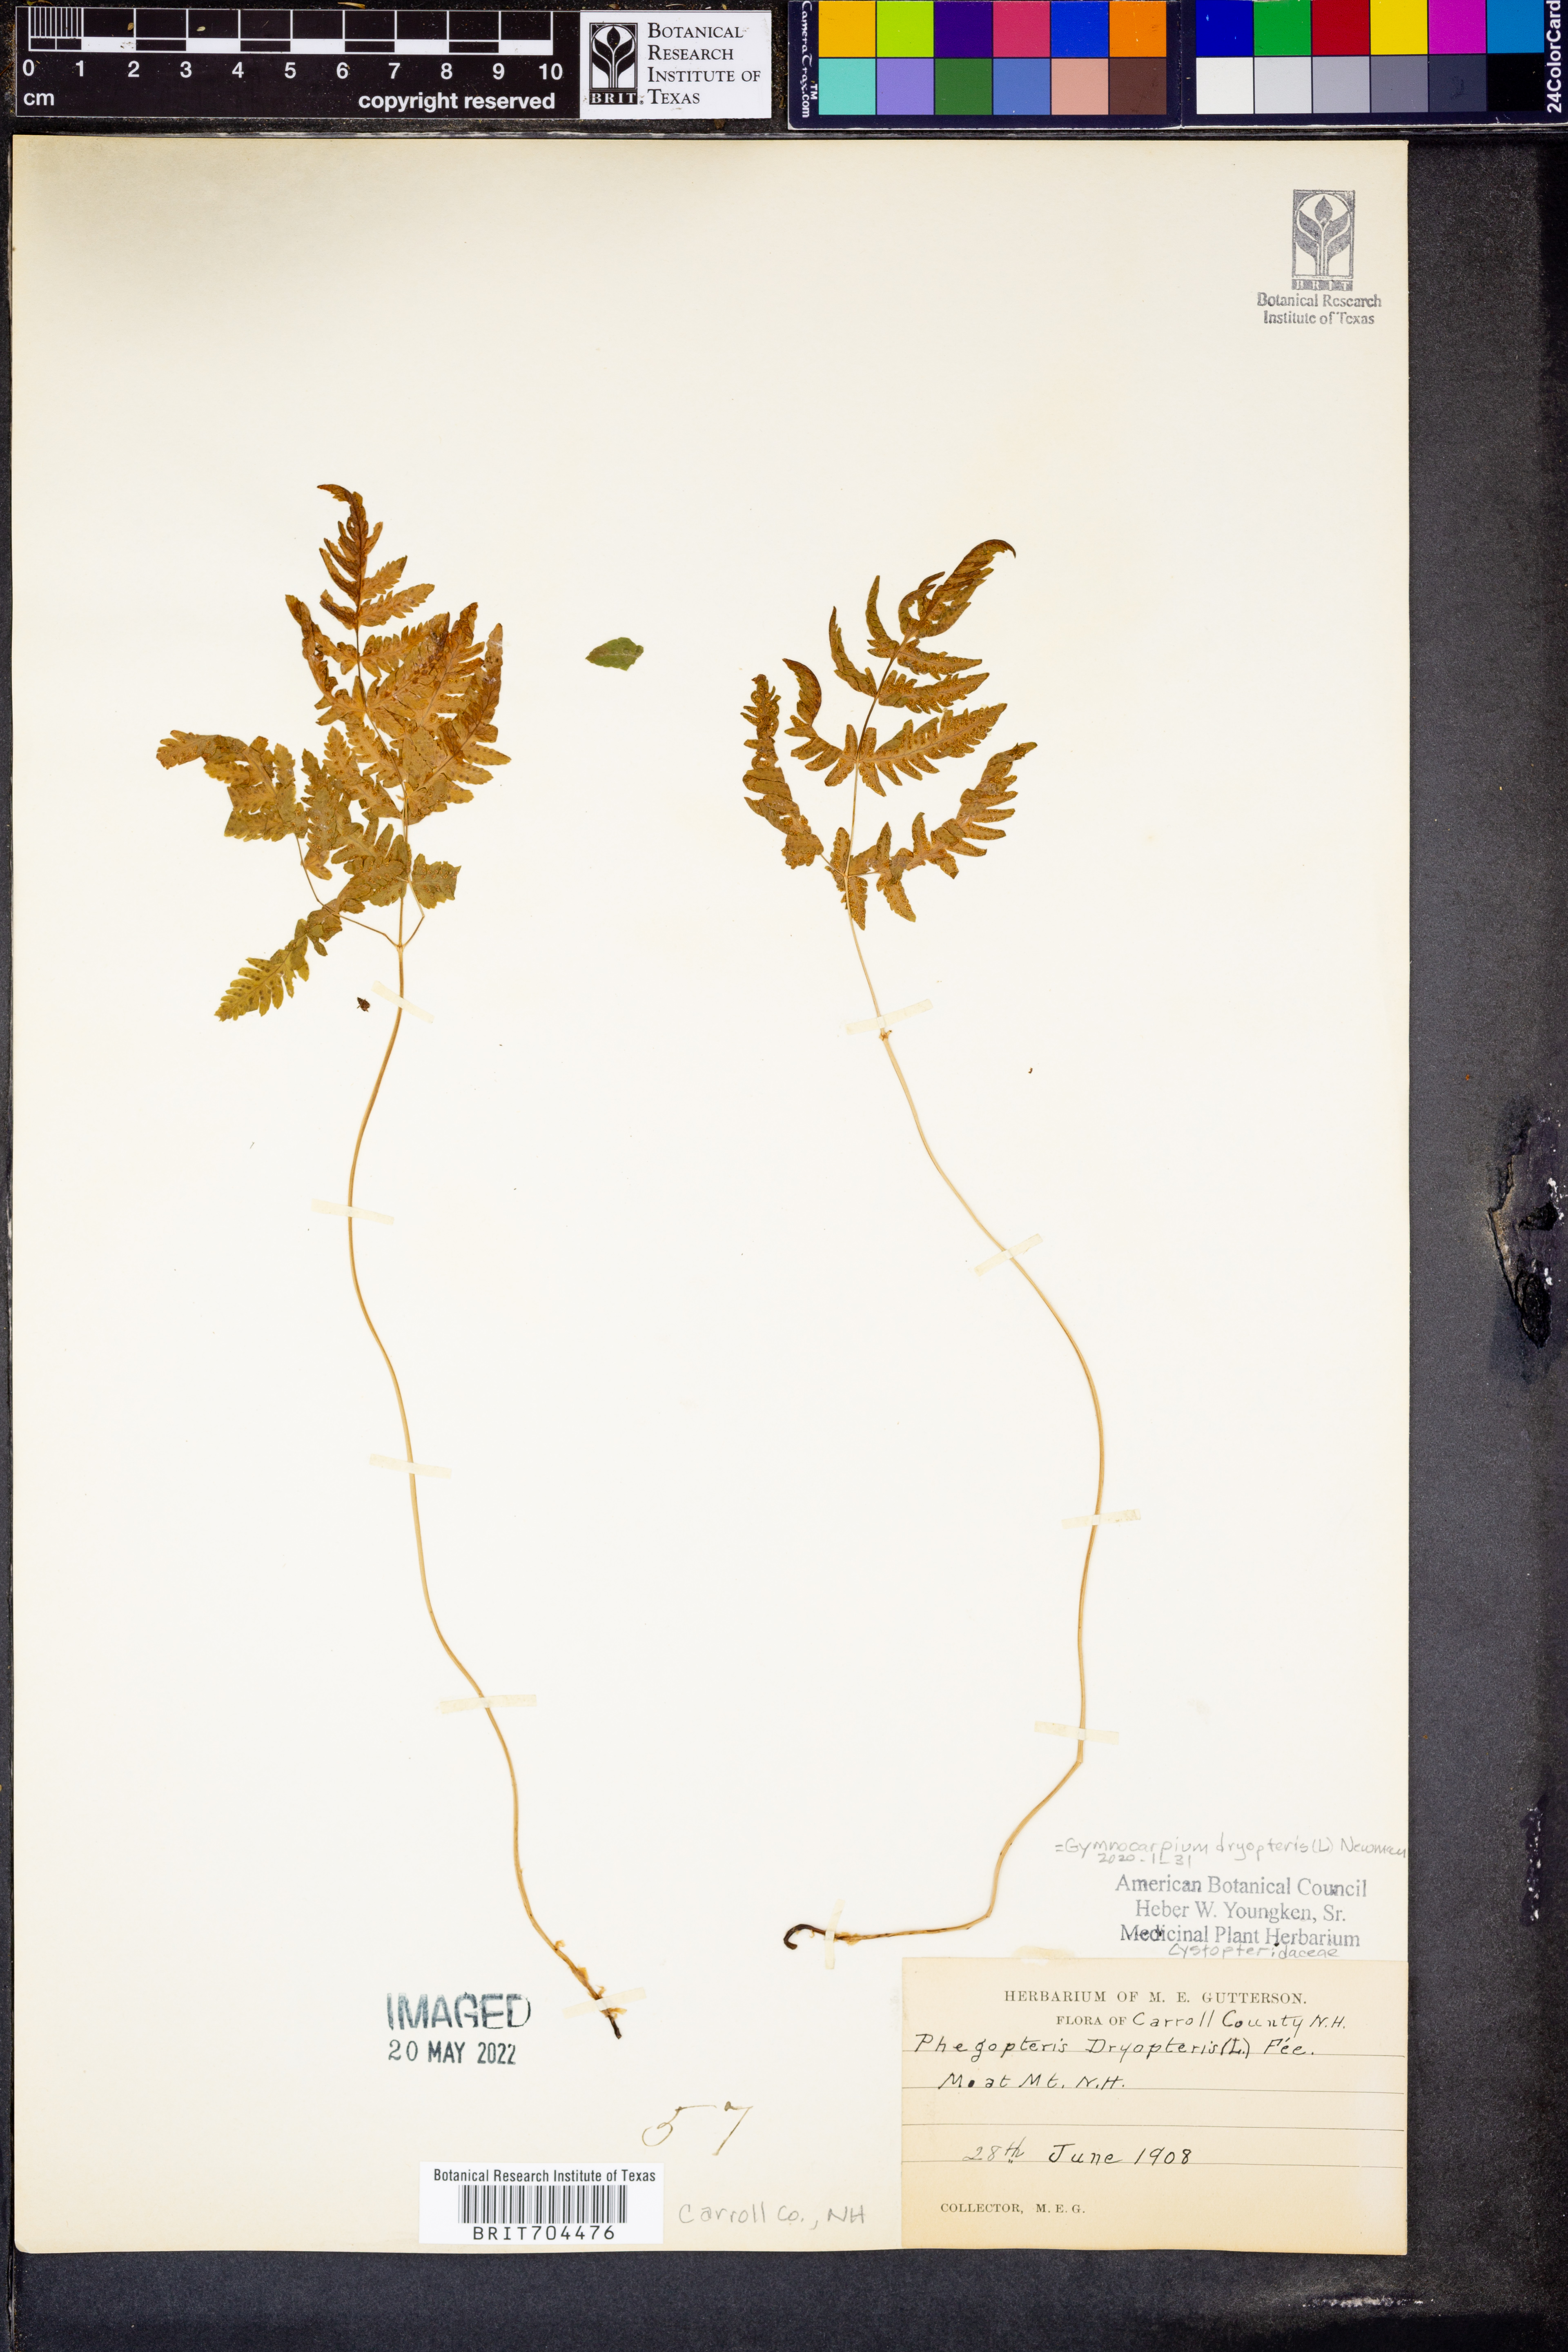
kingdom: Plantae
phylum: Tracheophyta
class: Polypodiopsida
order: Polypodiales
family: Cystopteridaceae
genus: Gymnocarpium
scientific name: Gymnocarpium dryopteris
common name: Oak fern
